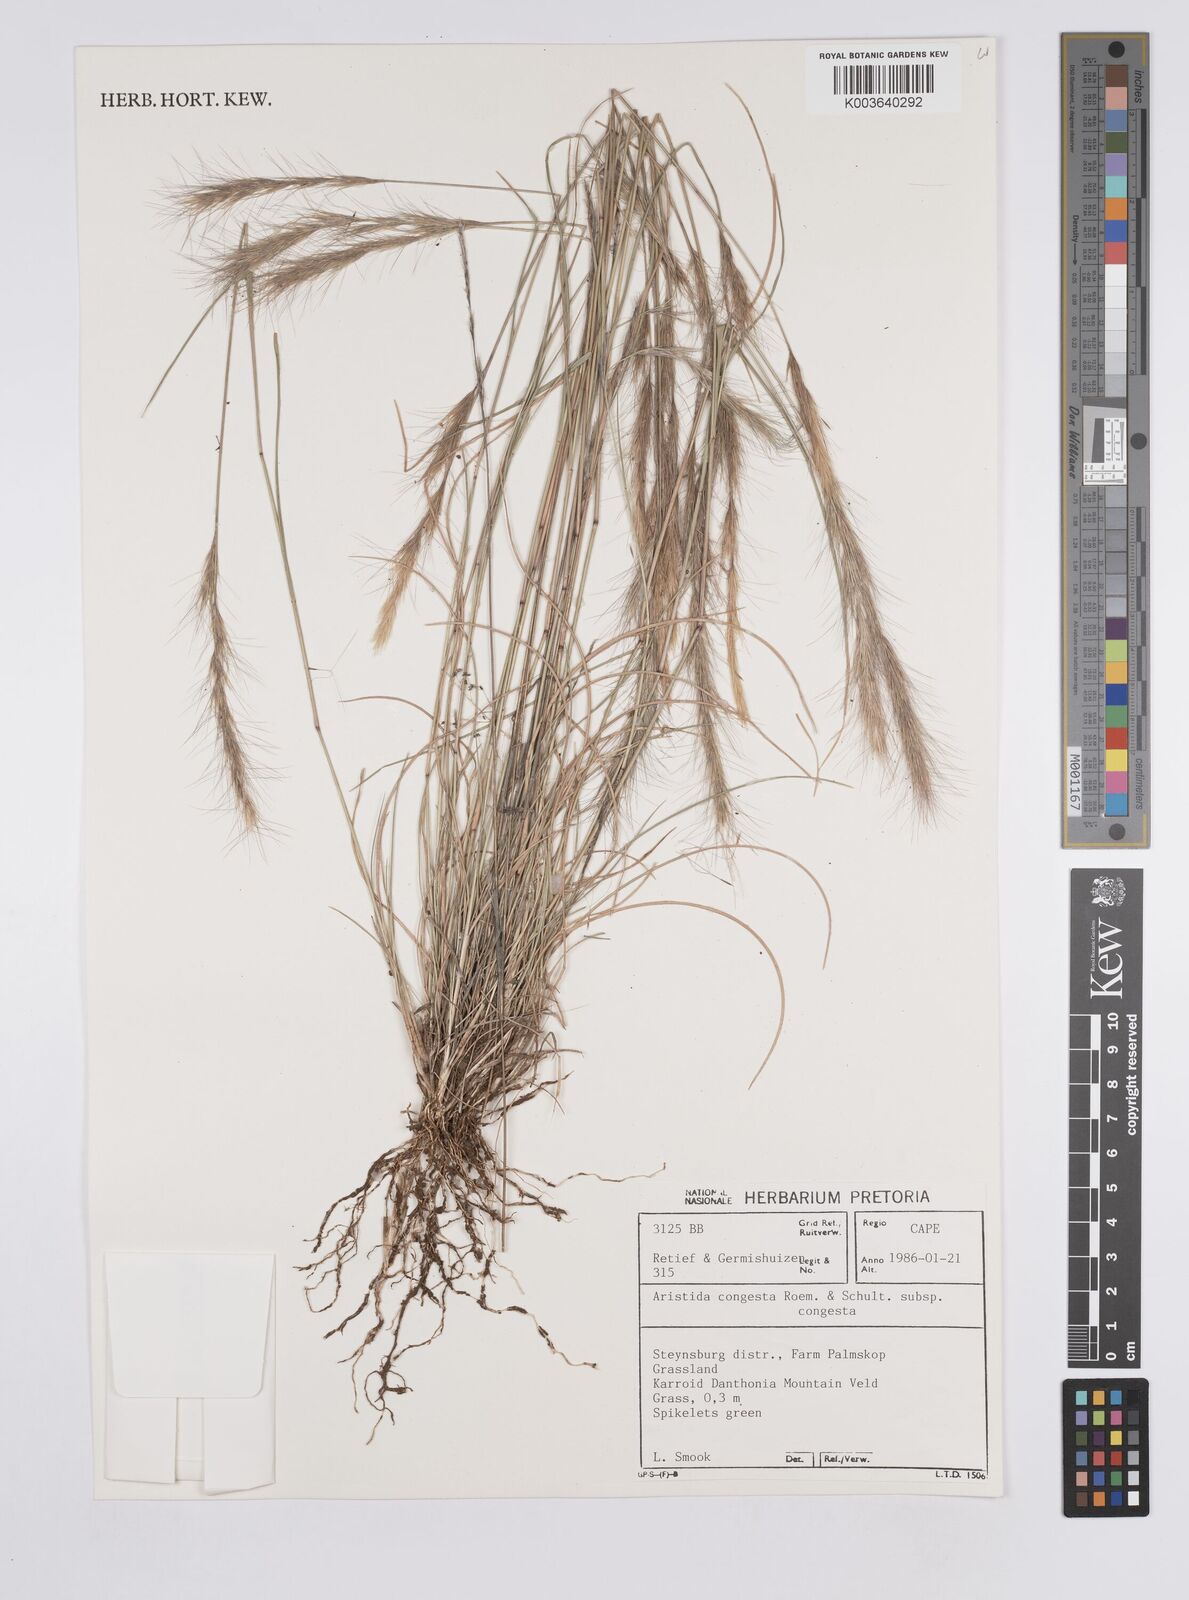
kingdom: Plantae
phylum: Tracheophyta
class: Liliopsida
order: Poales
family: Poaceae
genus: Aristida
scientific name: Aristida congesta
